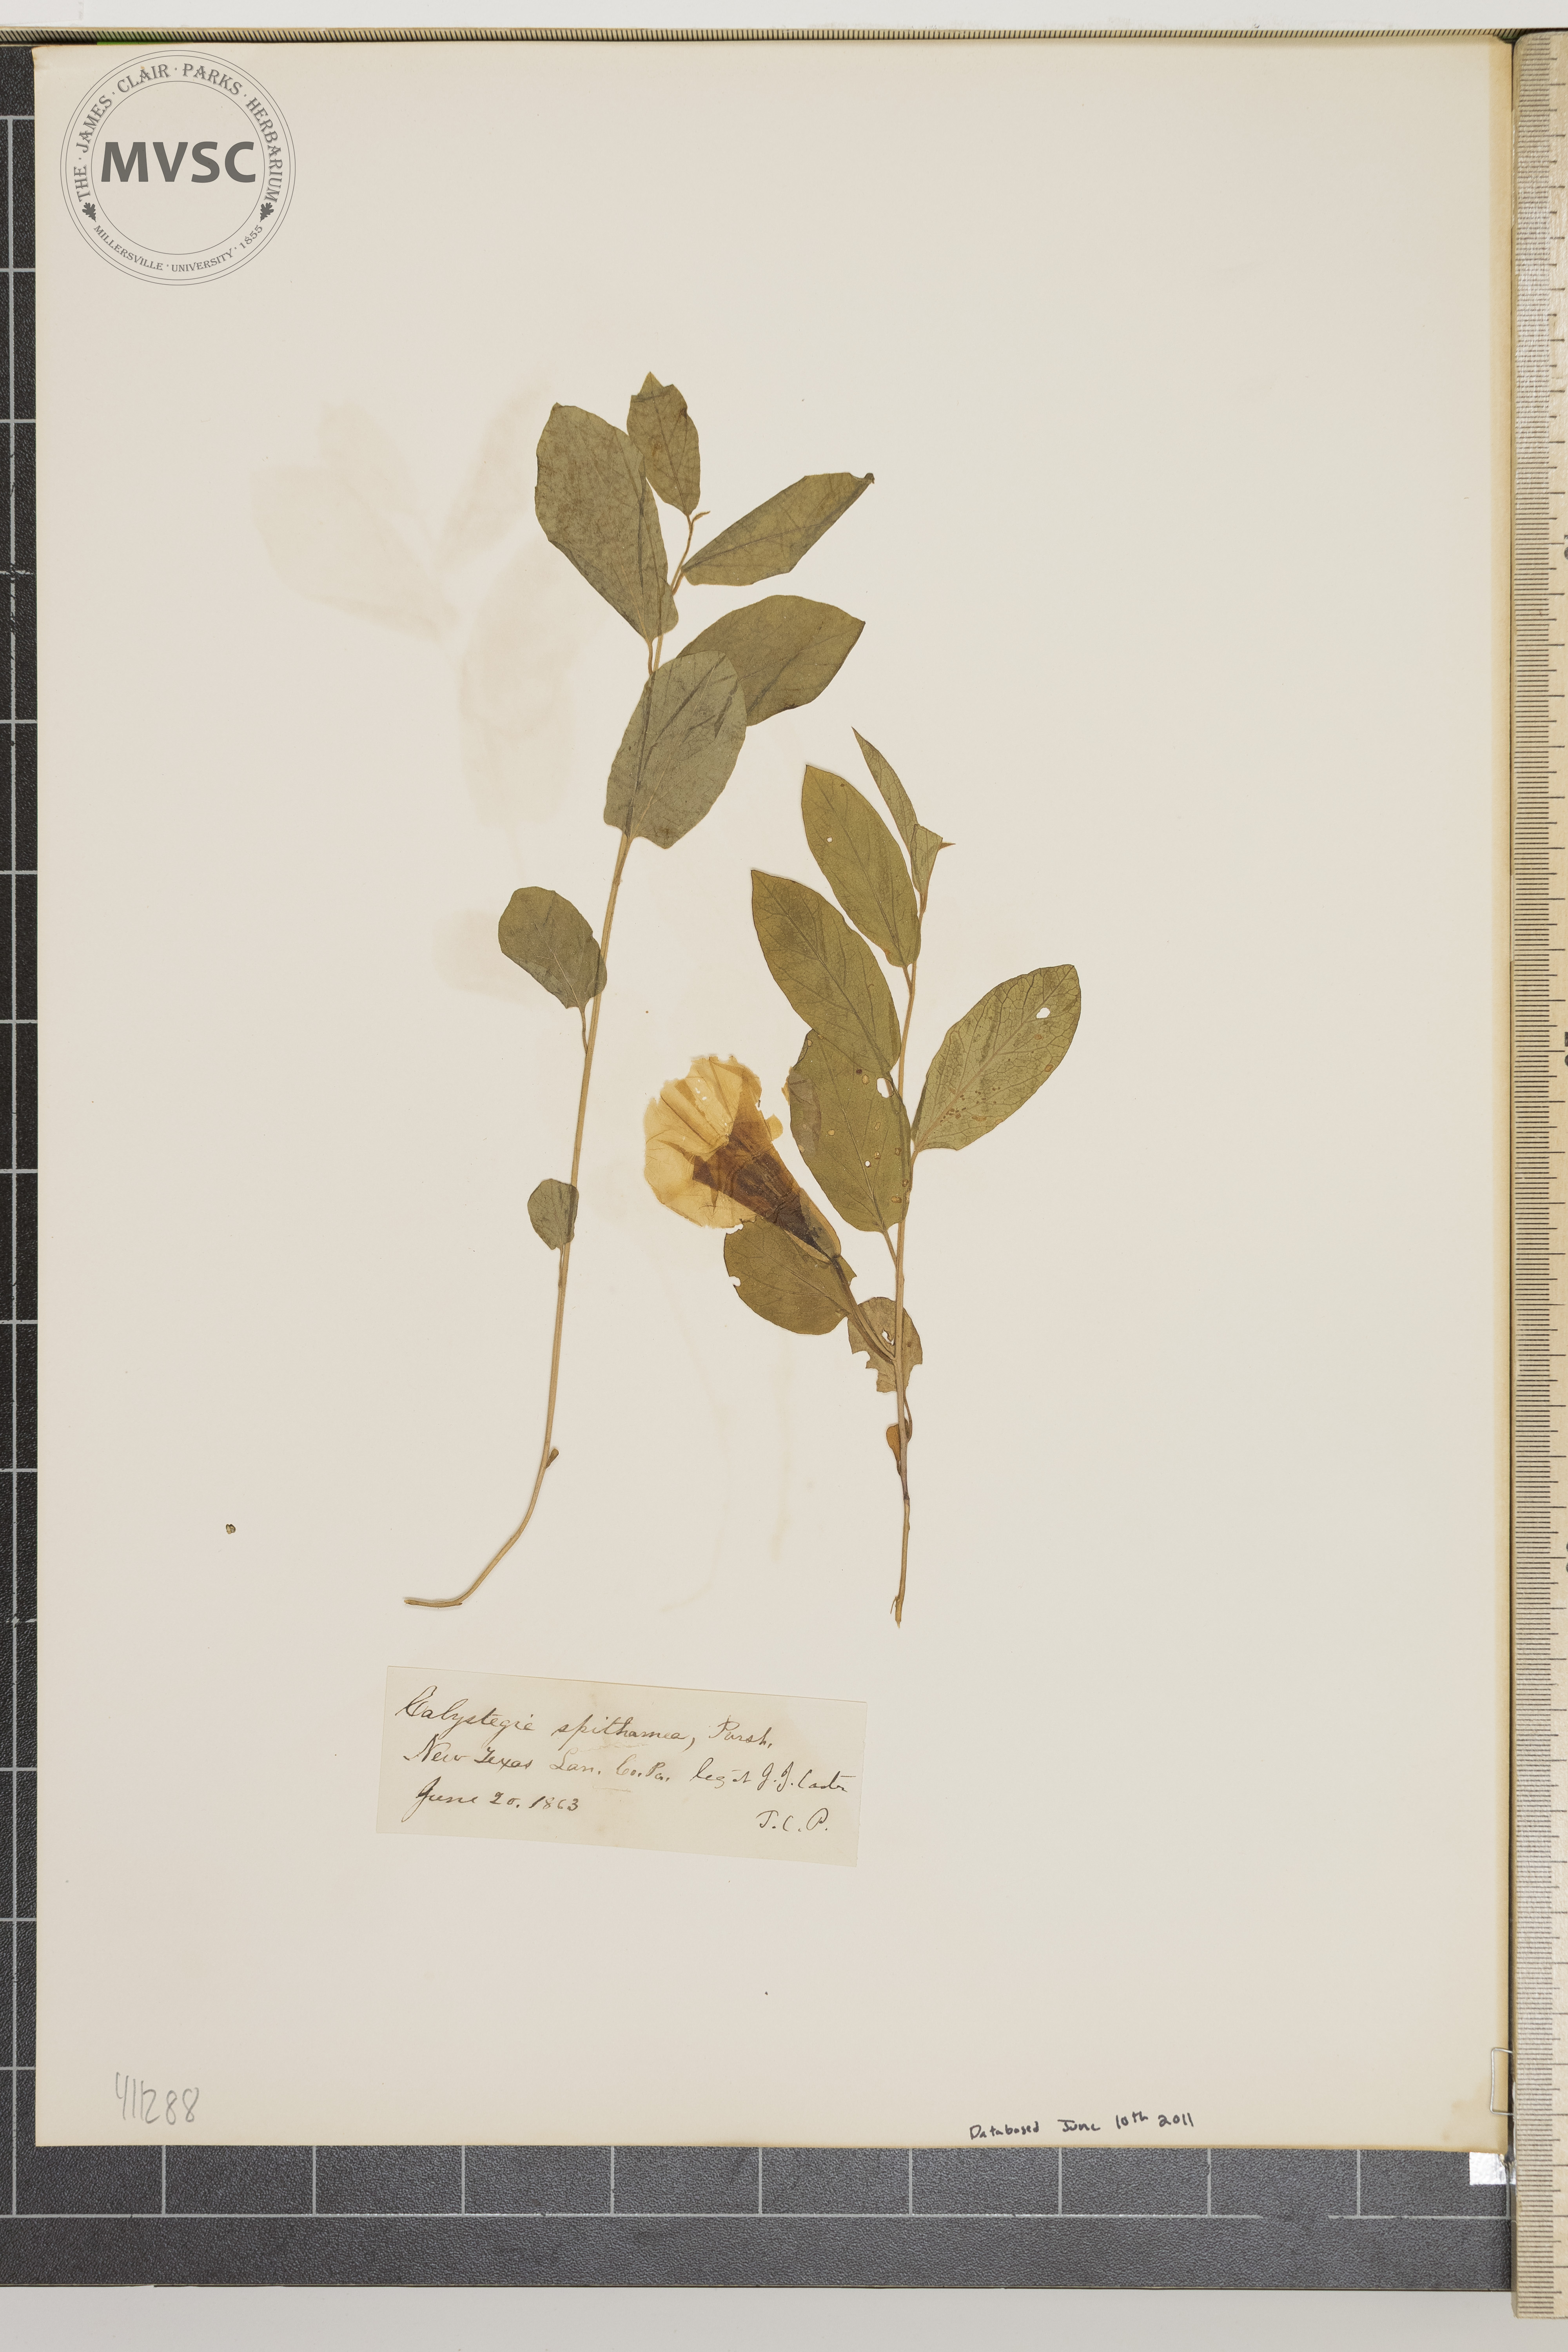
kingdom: Plantae
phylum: Tracheophyta
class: Magnoliopsida
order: Solanales
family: Convolvulaceae
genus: Calystegia
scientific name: Calystegia spithamaea
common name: Dwarf bindweed
